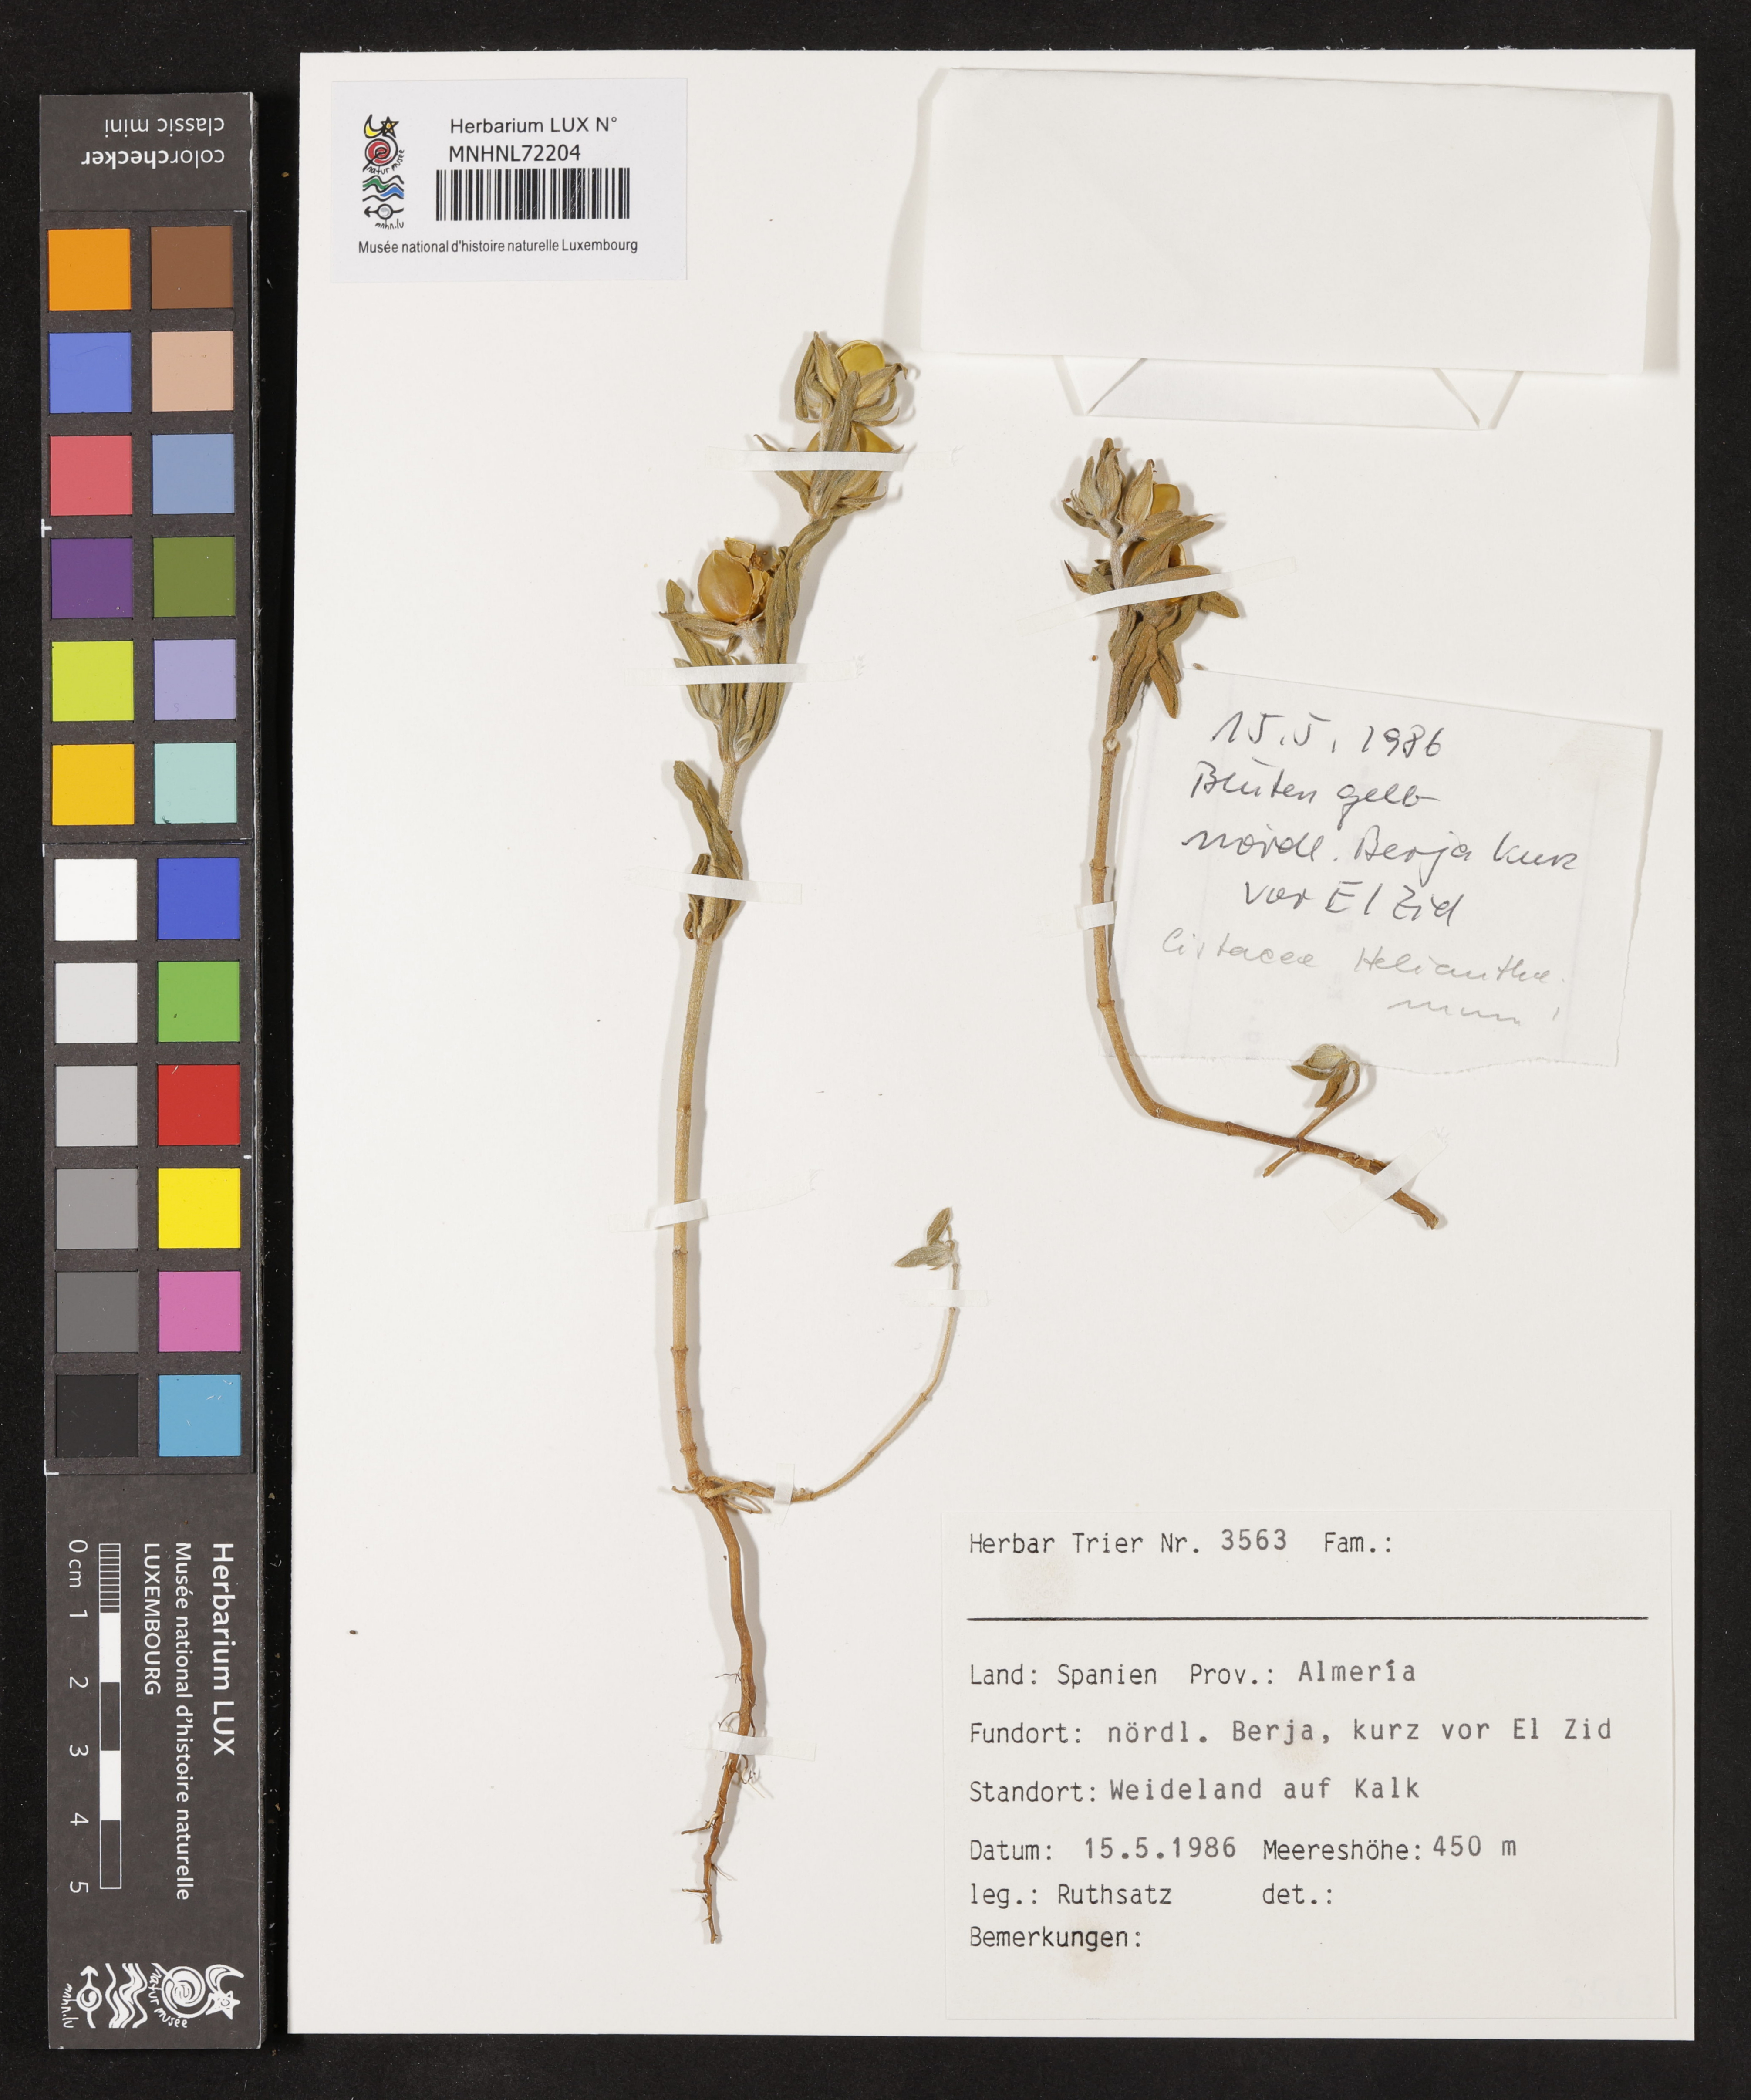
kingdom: Plantae
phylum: Tracheophyta
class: Magnoliopsida
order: Malvales
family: Cistaceae
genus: Halimium
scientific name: Halimium
